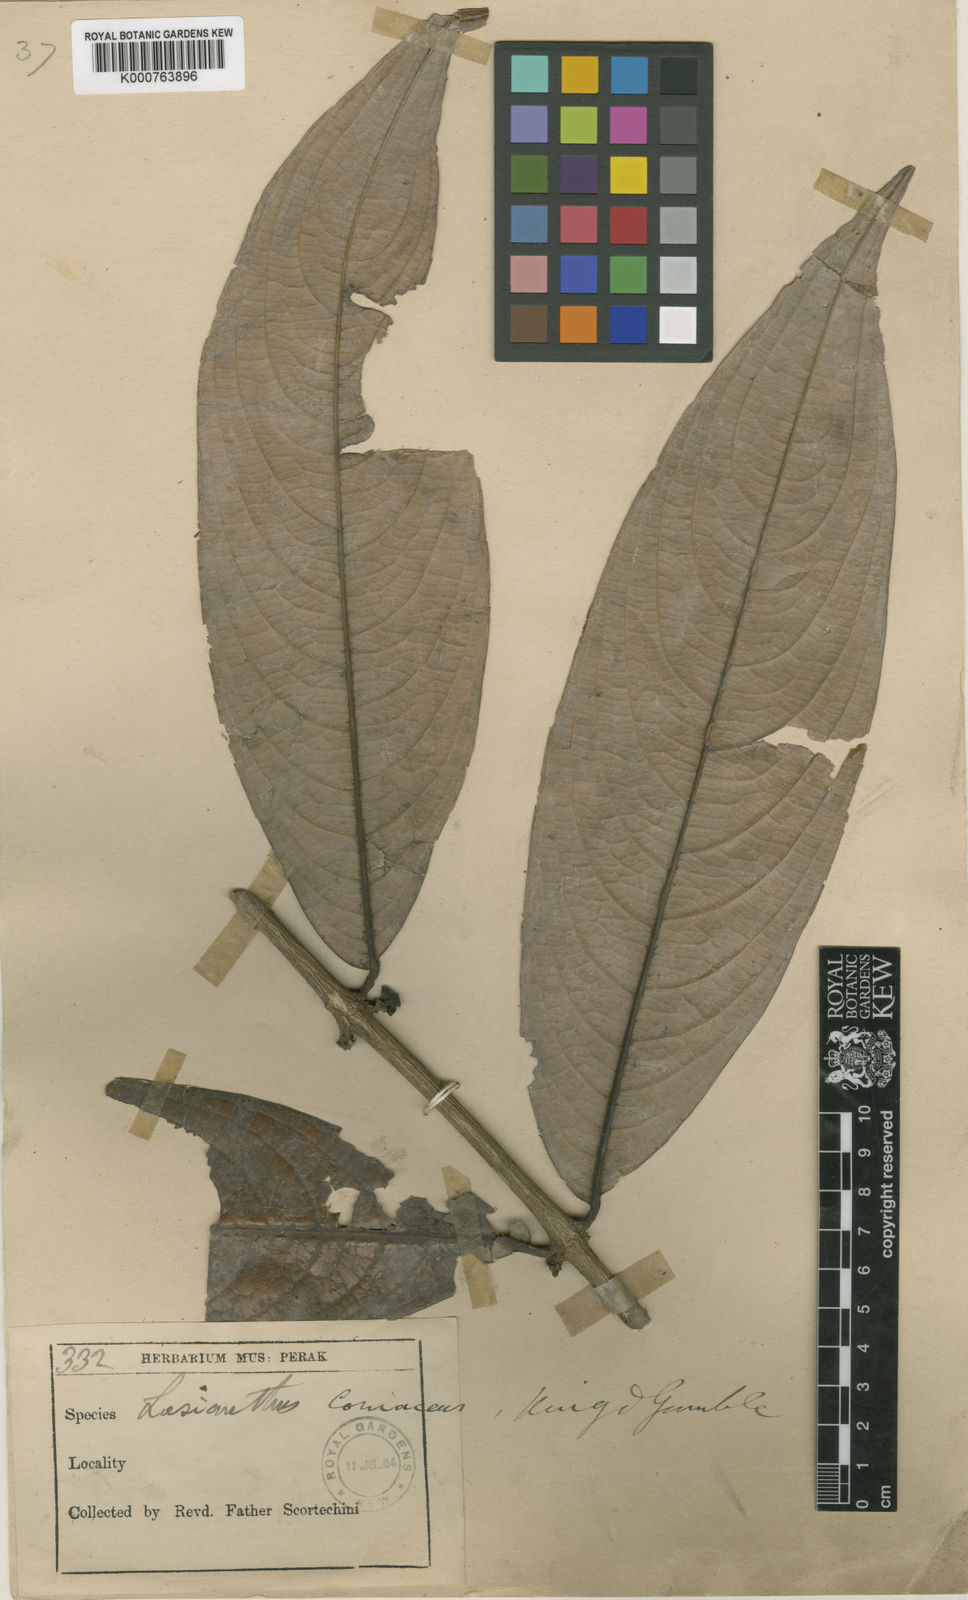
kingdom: Plantae
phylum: Tracheophyta
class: Magnoliopsida
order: Gentianales
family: Rubiaceae
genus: Lasianthus
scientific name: Lasianthus pergamaceus
